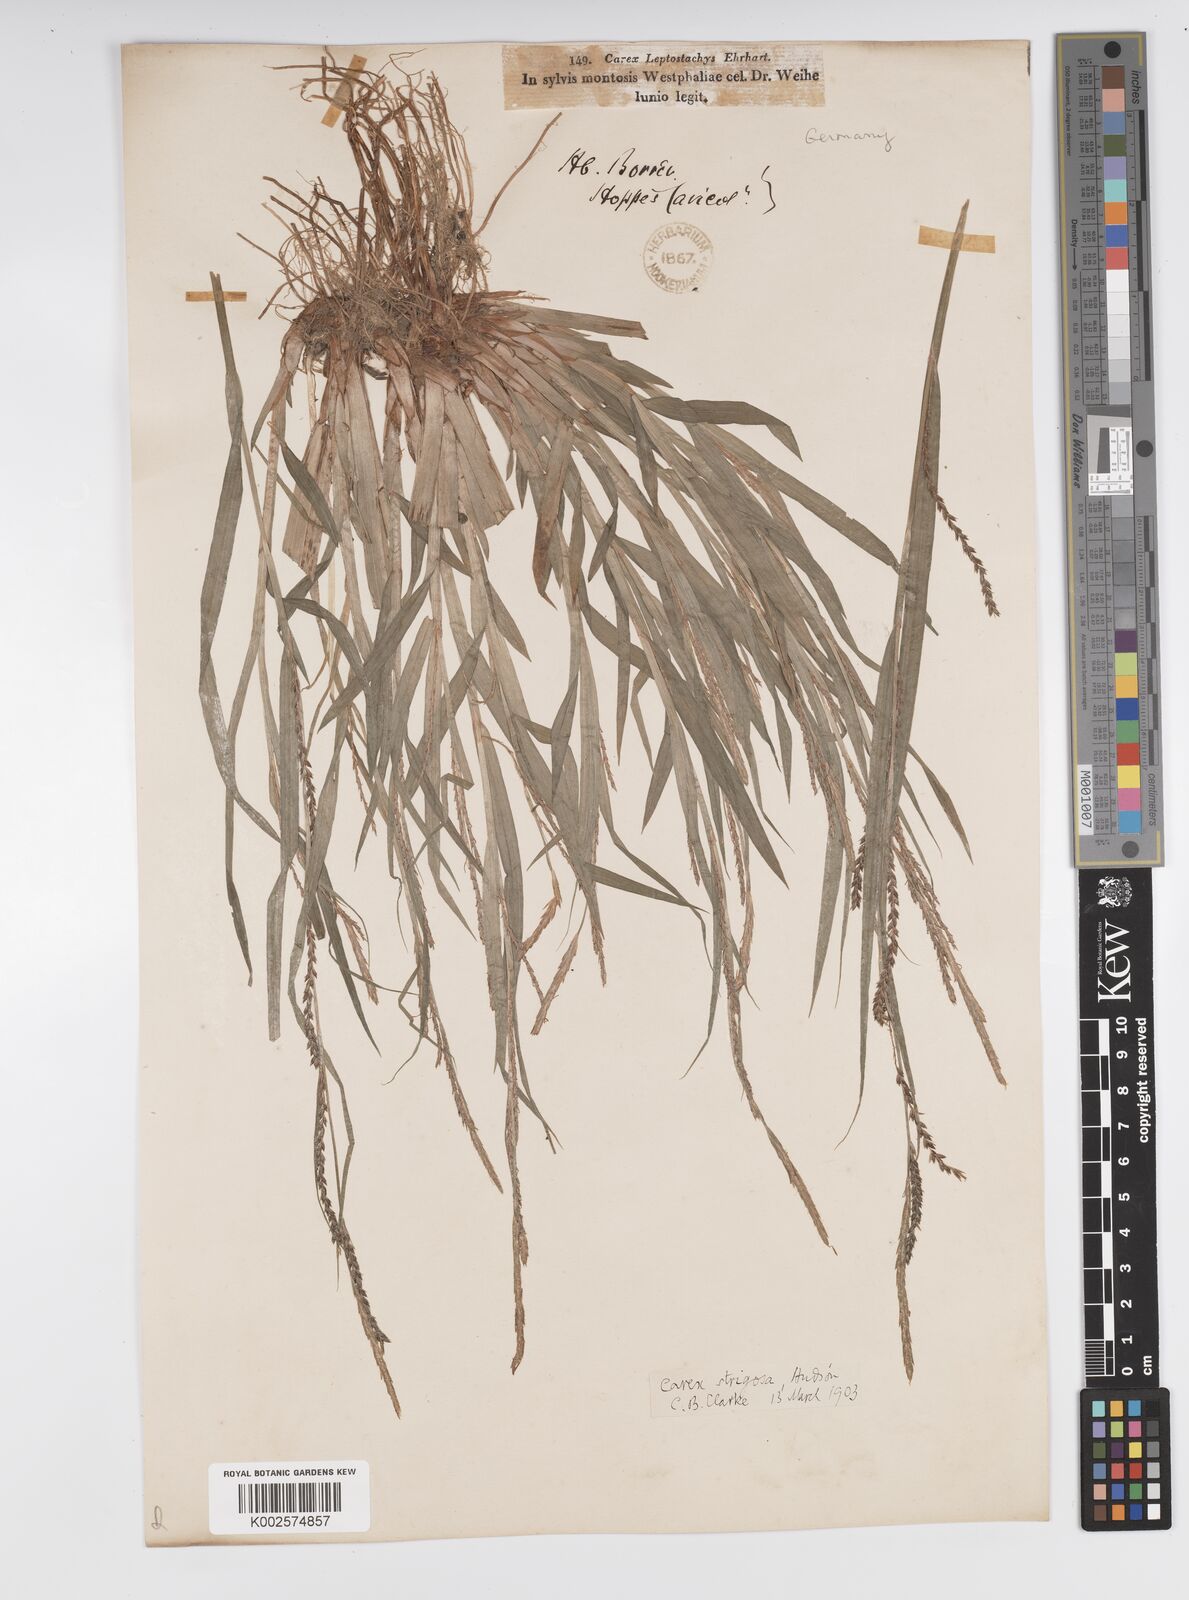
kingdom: Plantae
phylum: Tracheophyta
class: Liliopsida
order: Poales
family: Cyperaceae
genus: Carex
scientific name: Carex strigosa
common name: Thin-spiked wood-sedge
